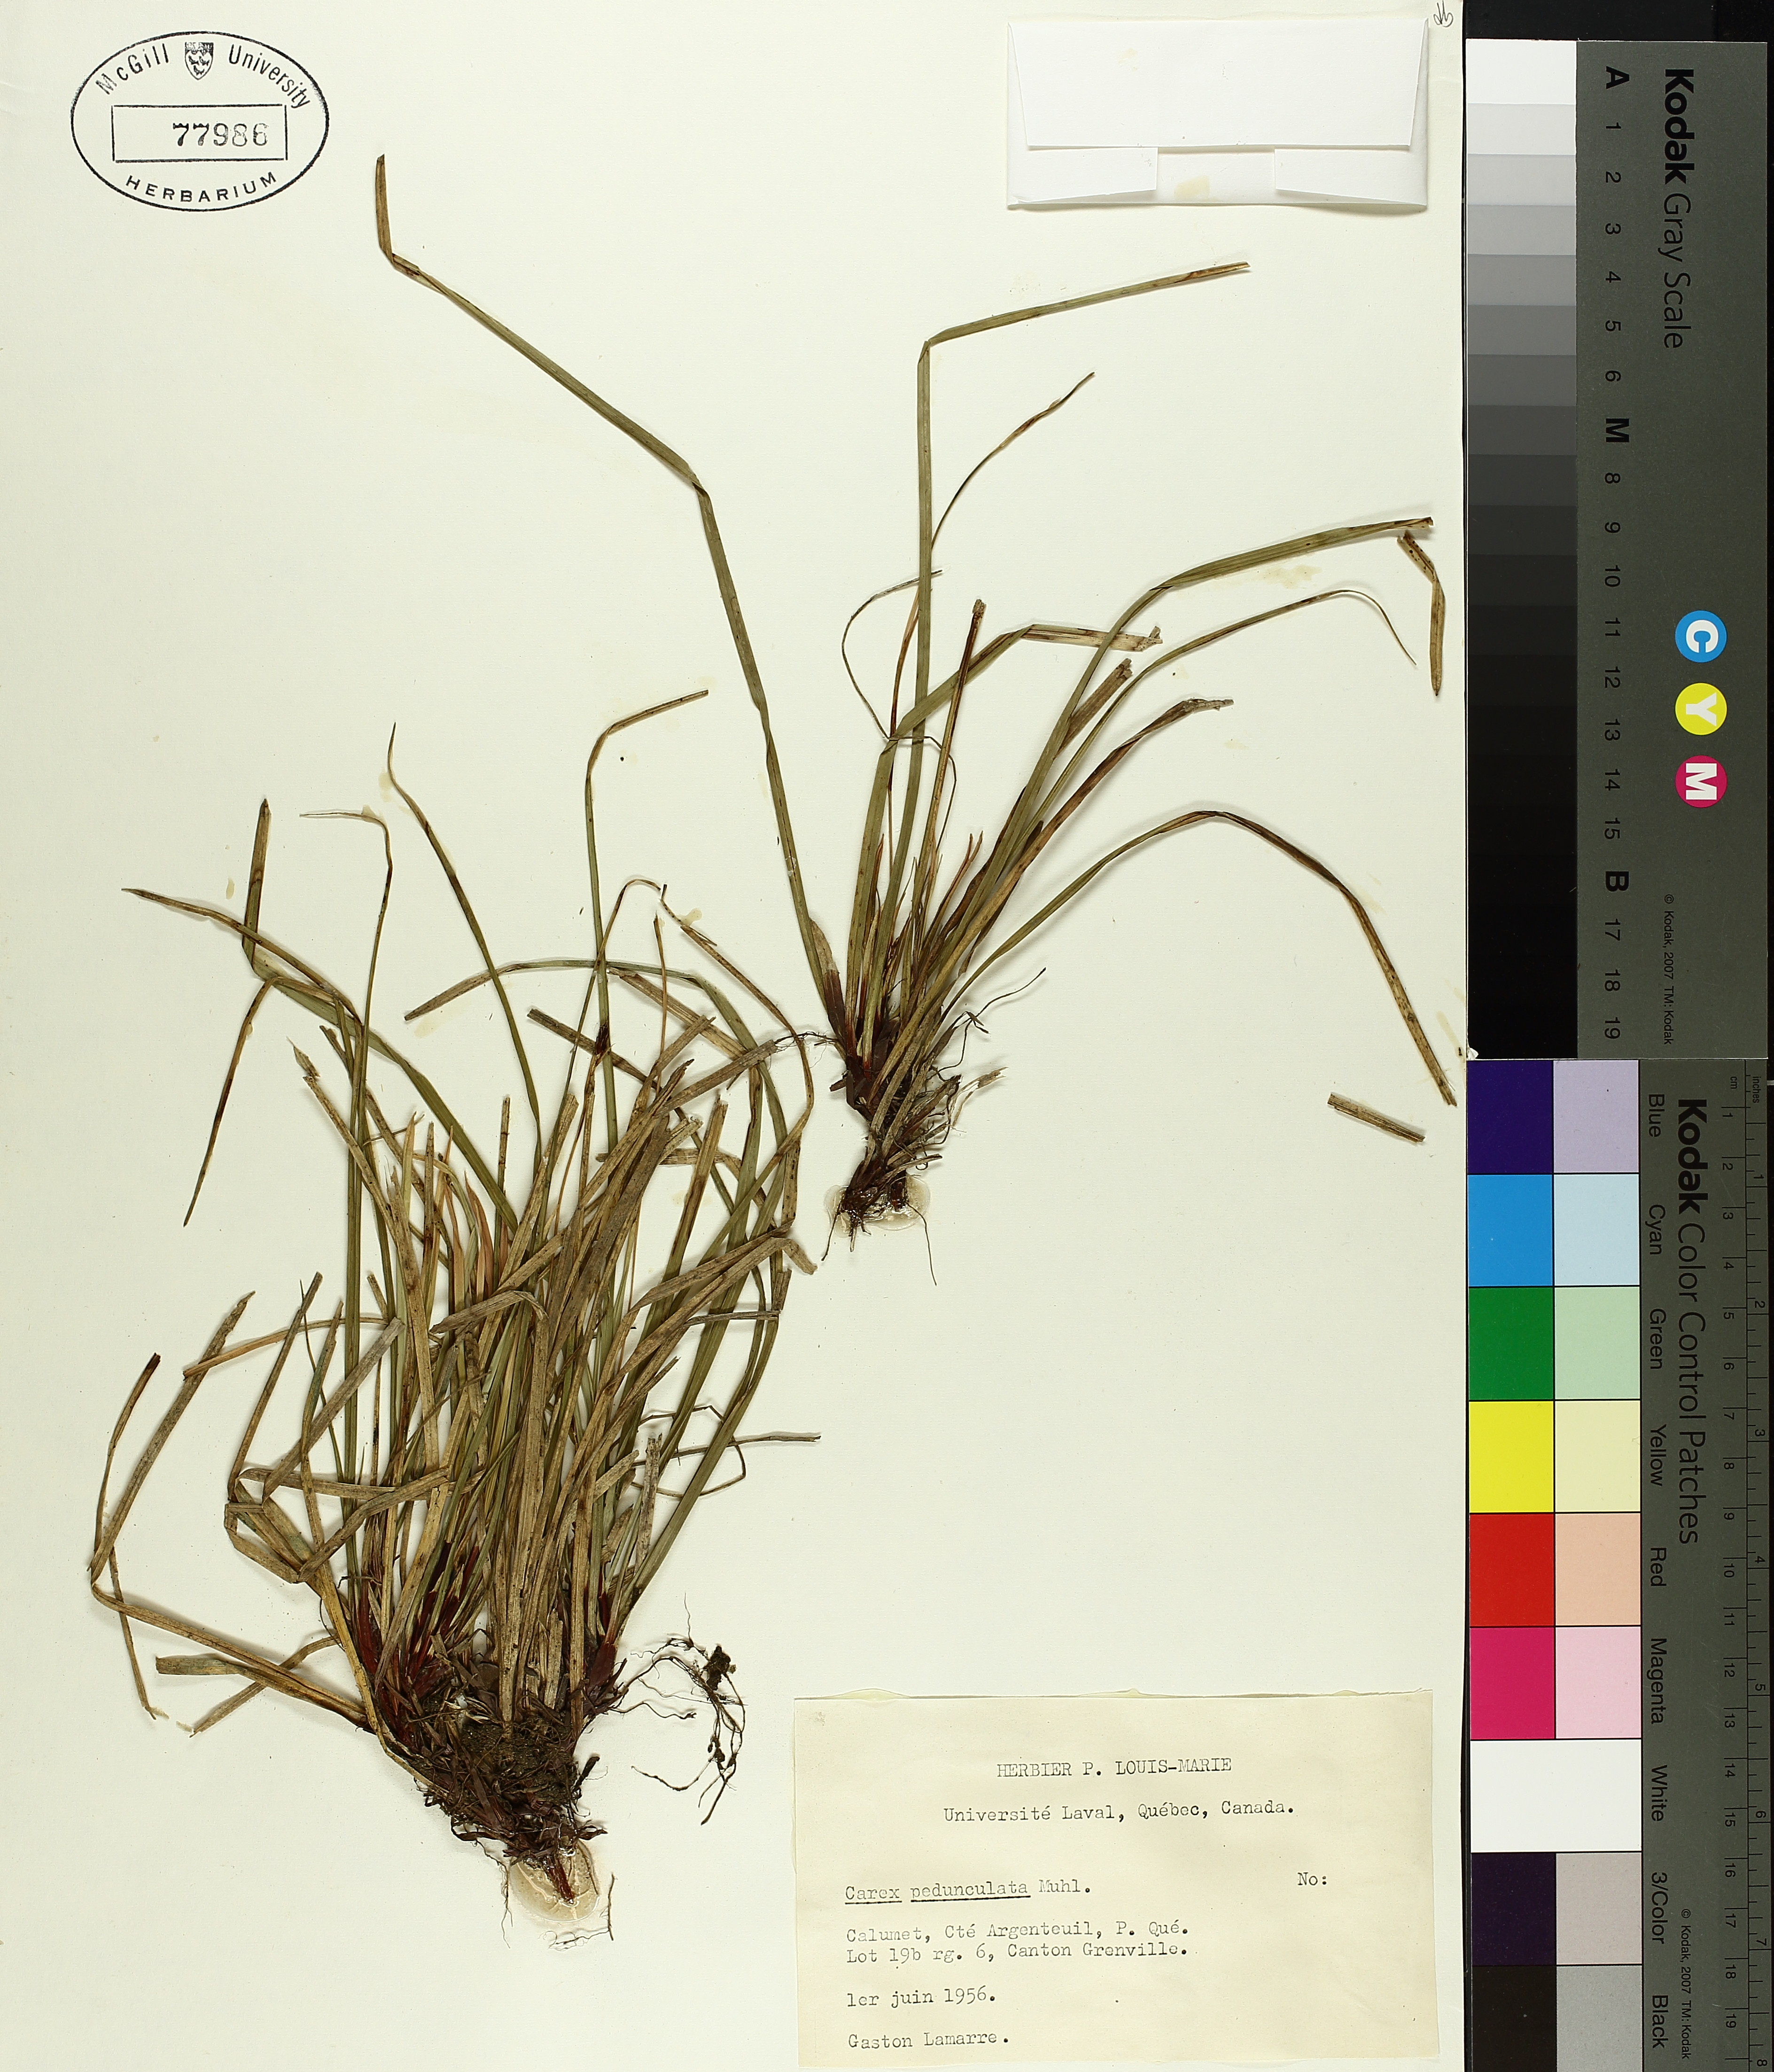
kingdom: Plantae
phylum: Tracheophyta
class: Liliopsida
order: Poales
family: Cyperaceae
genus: Carex
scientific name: Carex pedunculata
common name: Pedunculate sedge
